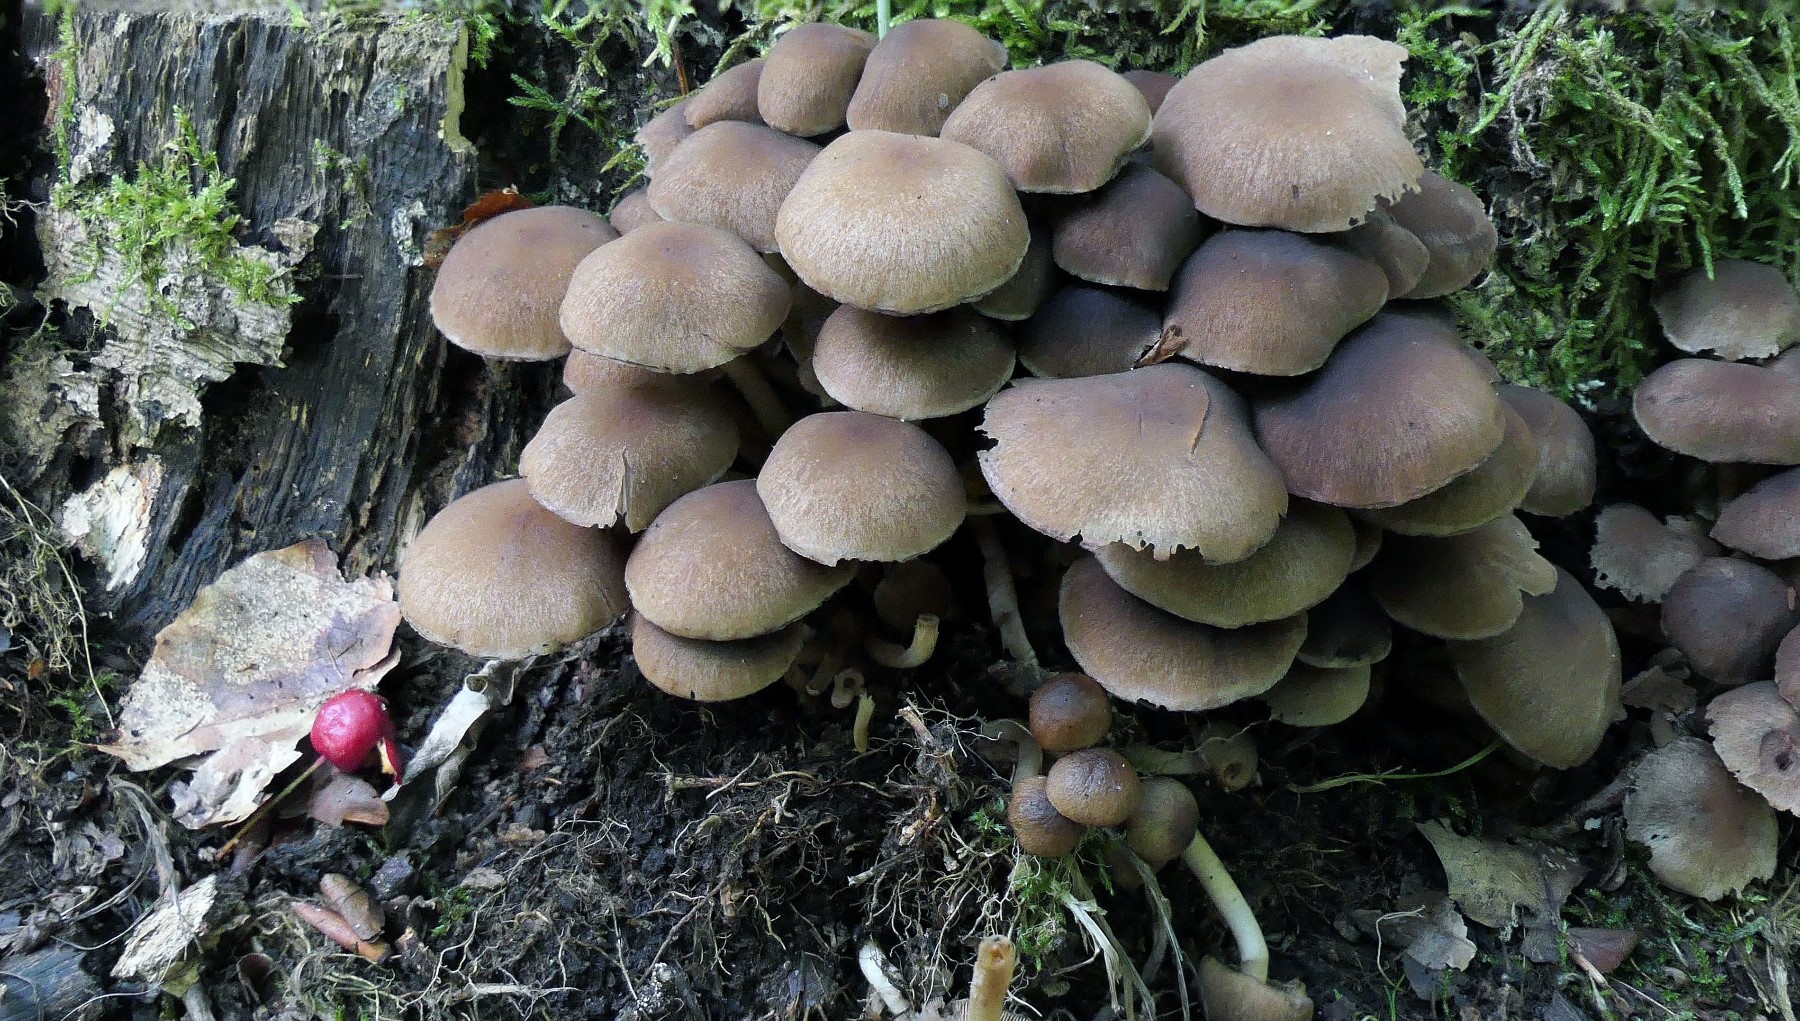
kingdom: Fungi
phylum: Basidiomycota
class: Agaricomycetes
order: Agaricales
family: Psathyrellaceae
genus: Psathyrella
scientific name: Psathyrella piluliformis
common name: lysstokket mørkhat
